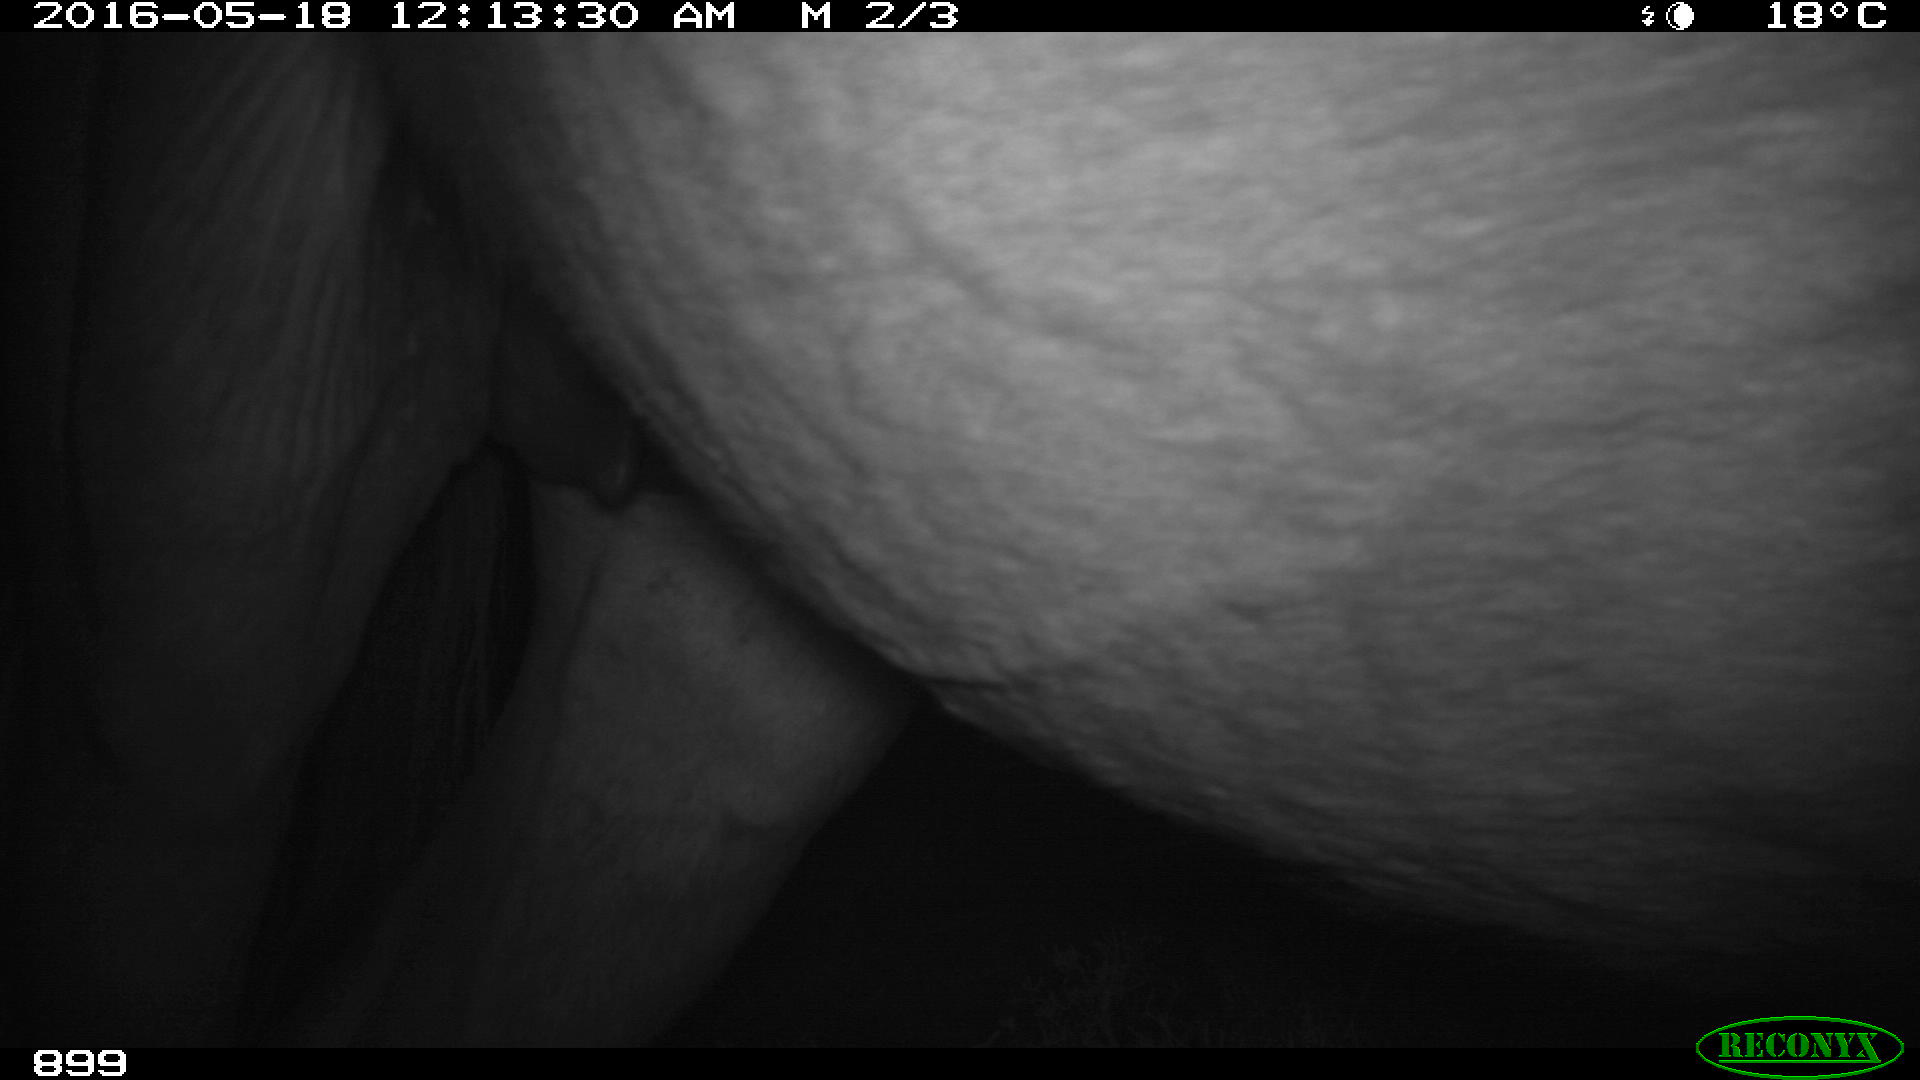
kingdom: Animalia
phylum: Chordata
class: Mammalia
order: Perissodactyla
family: Equidae
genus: Equus
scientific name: Equus caballus
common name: Horse
